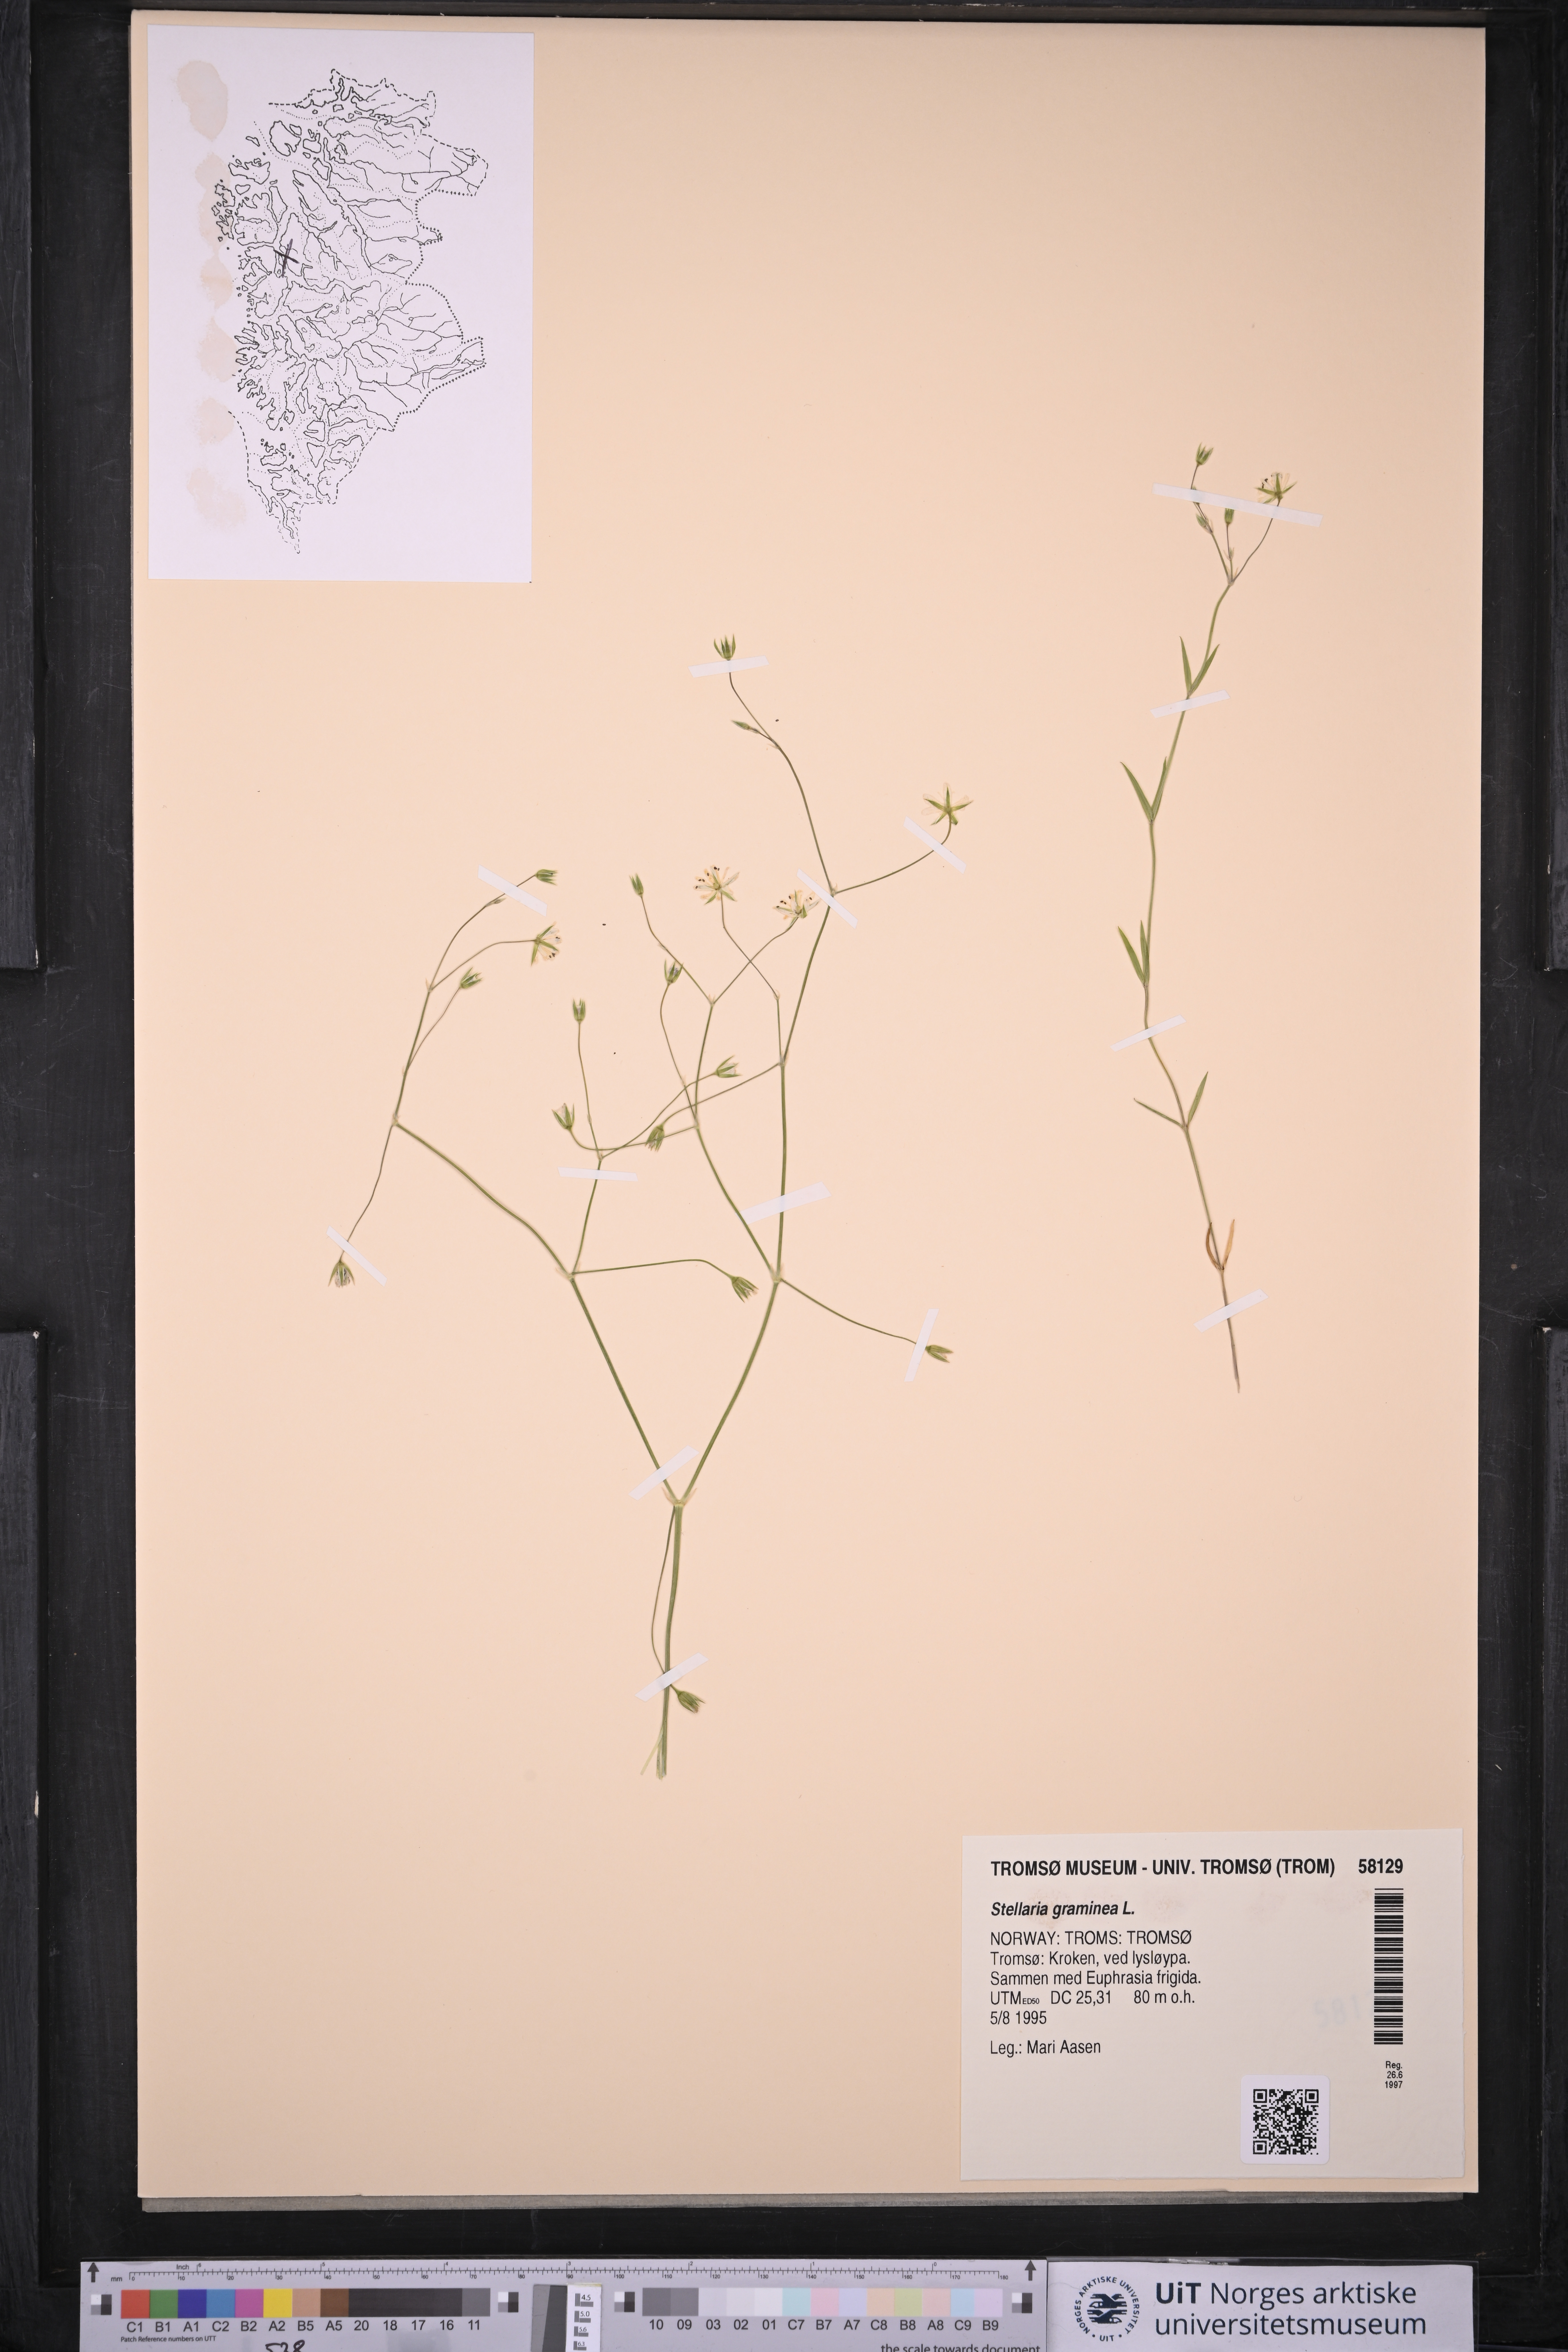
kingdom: Plantae
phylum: Tracheophyta
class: Magnoliopsida
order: Caryophyllales
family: Caryophyllaceae
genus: Stellaria
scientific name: Stellaria graminea
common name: Grass-like starwort
